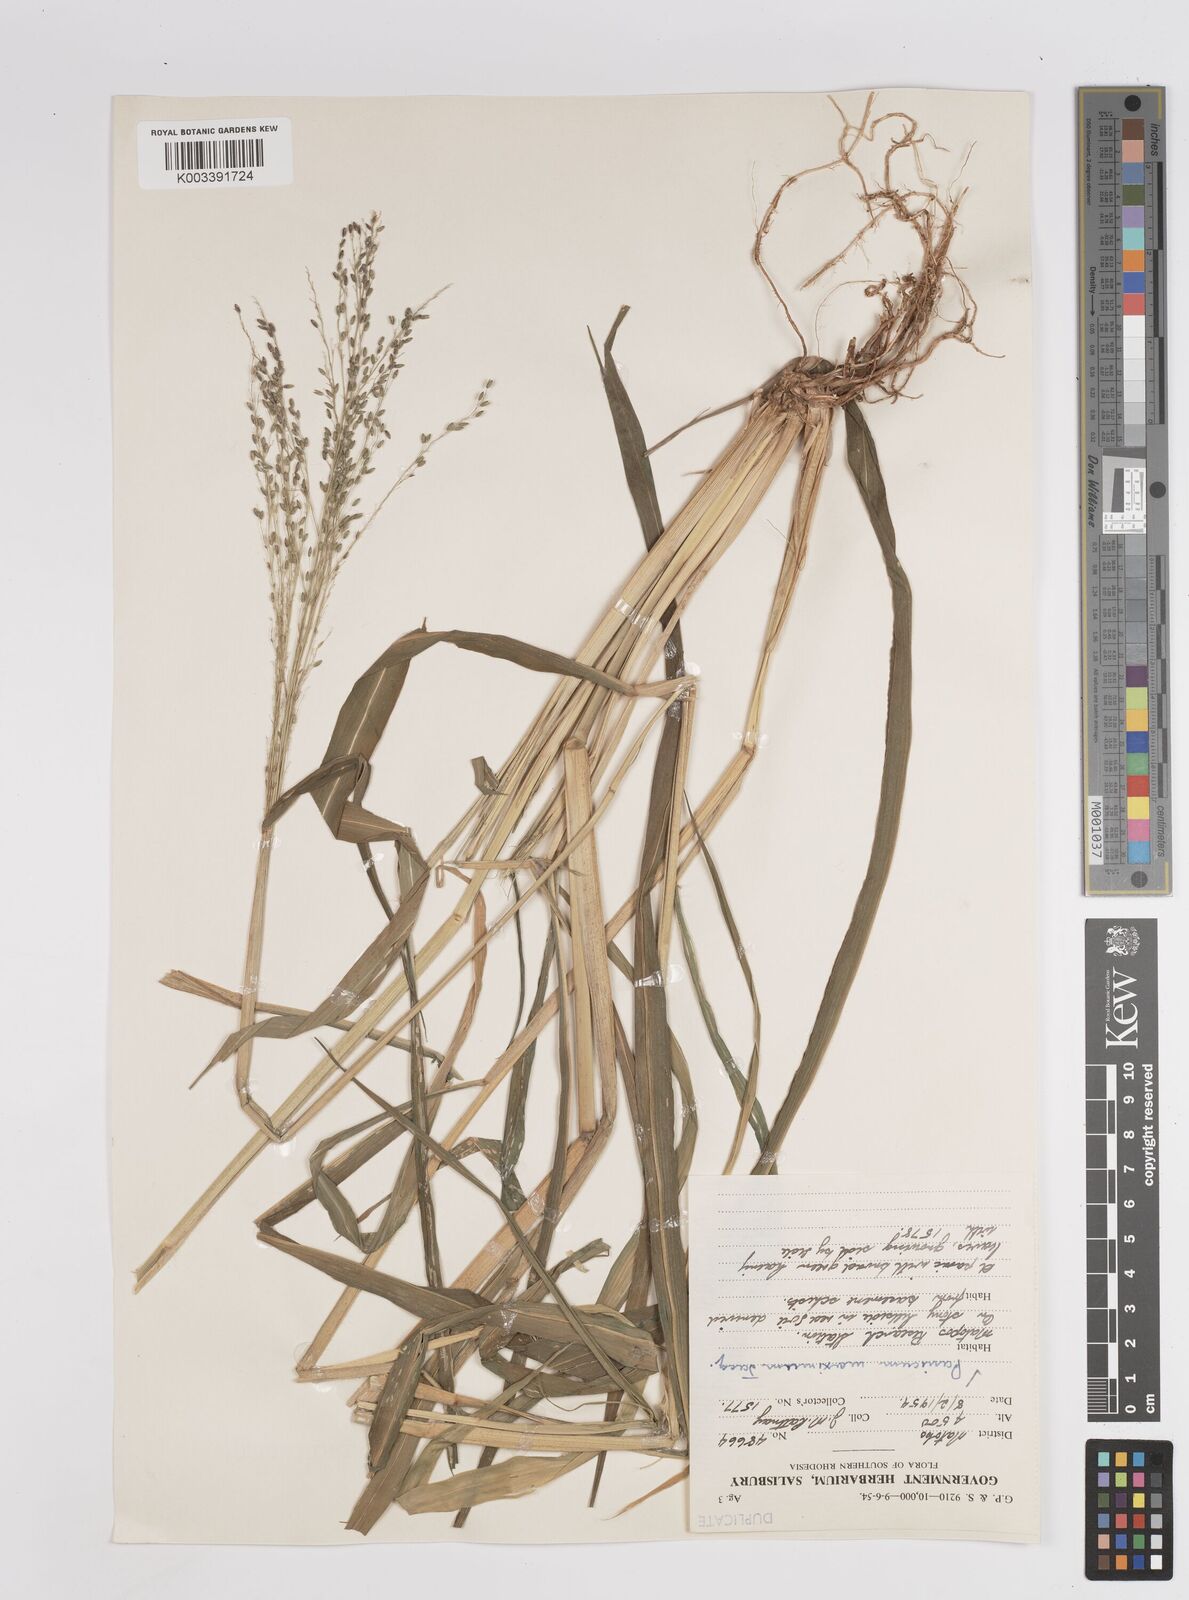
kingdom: Plantae
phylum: Tracheophyta
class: Liliopsida
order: Poales
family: Poaceae
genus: Megathyrsus
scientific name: Megathyrsus maximus
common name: Guineagrass
